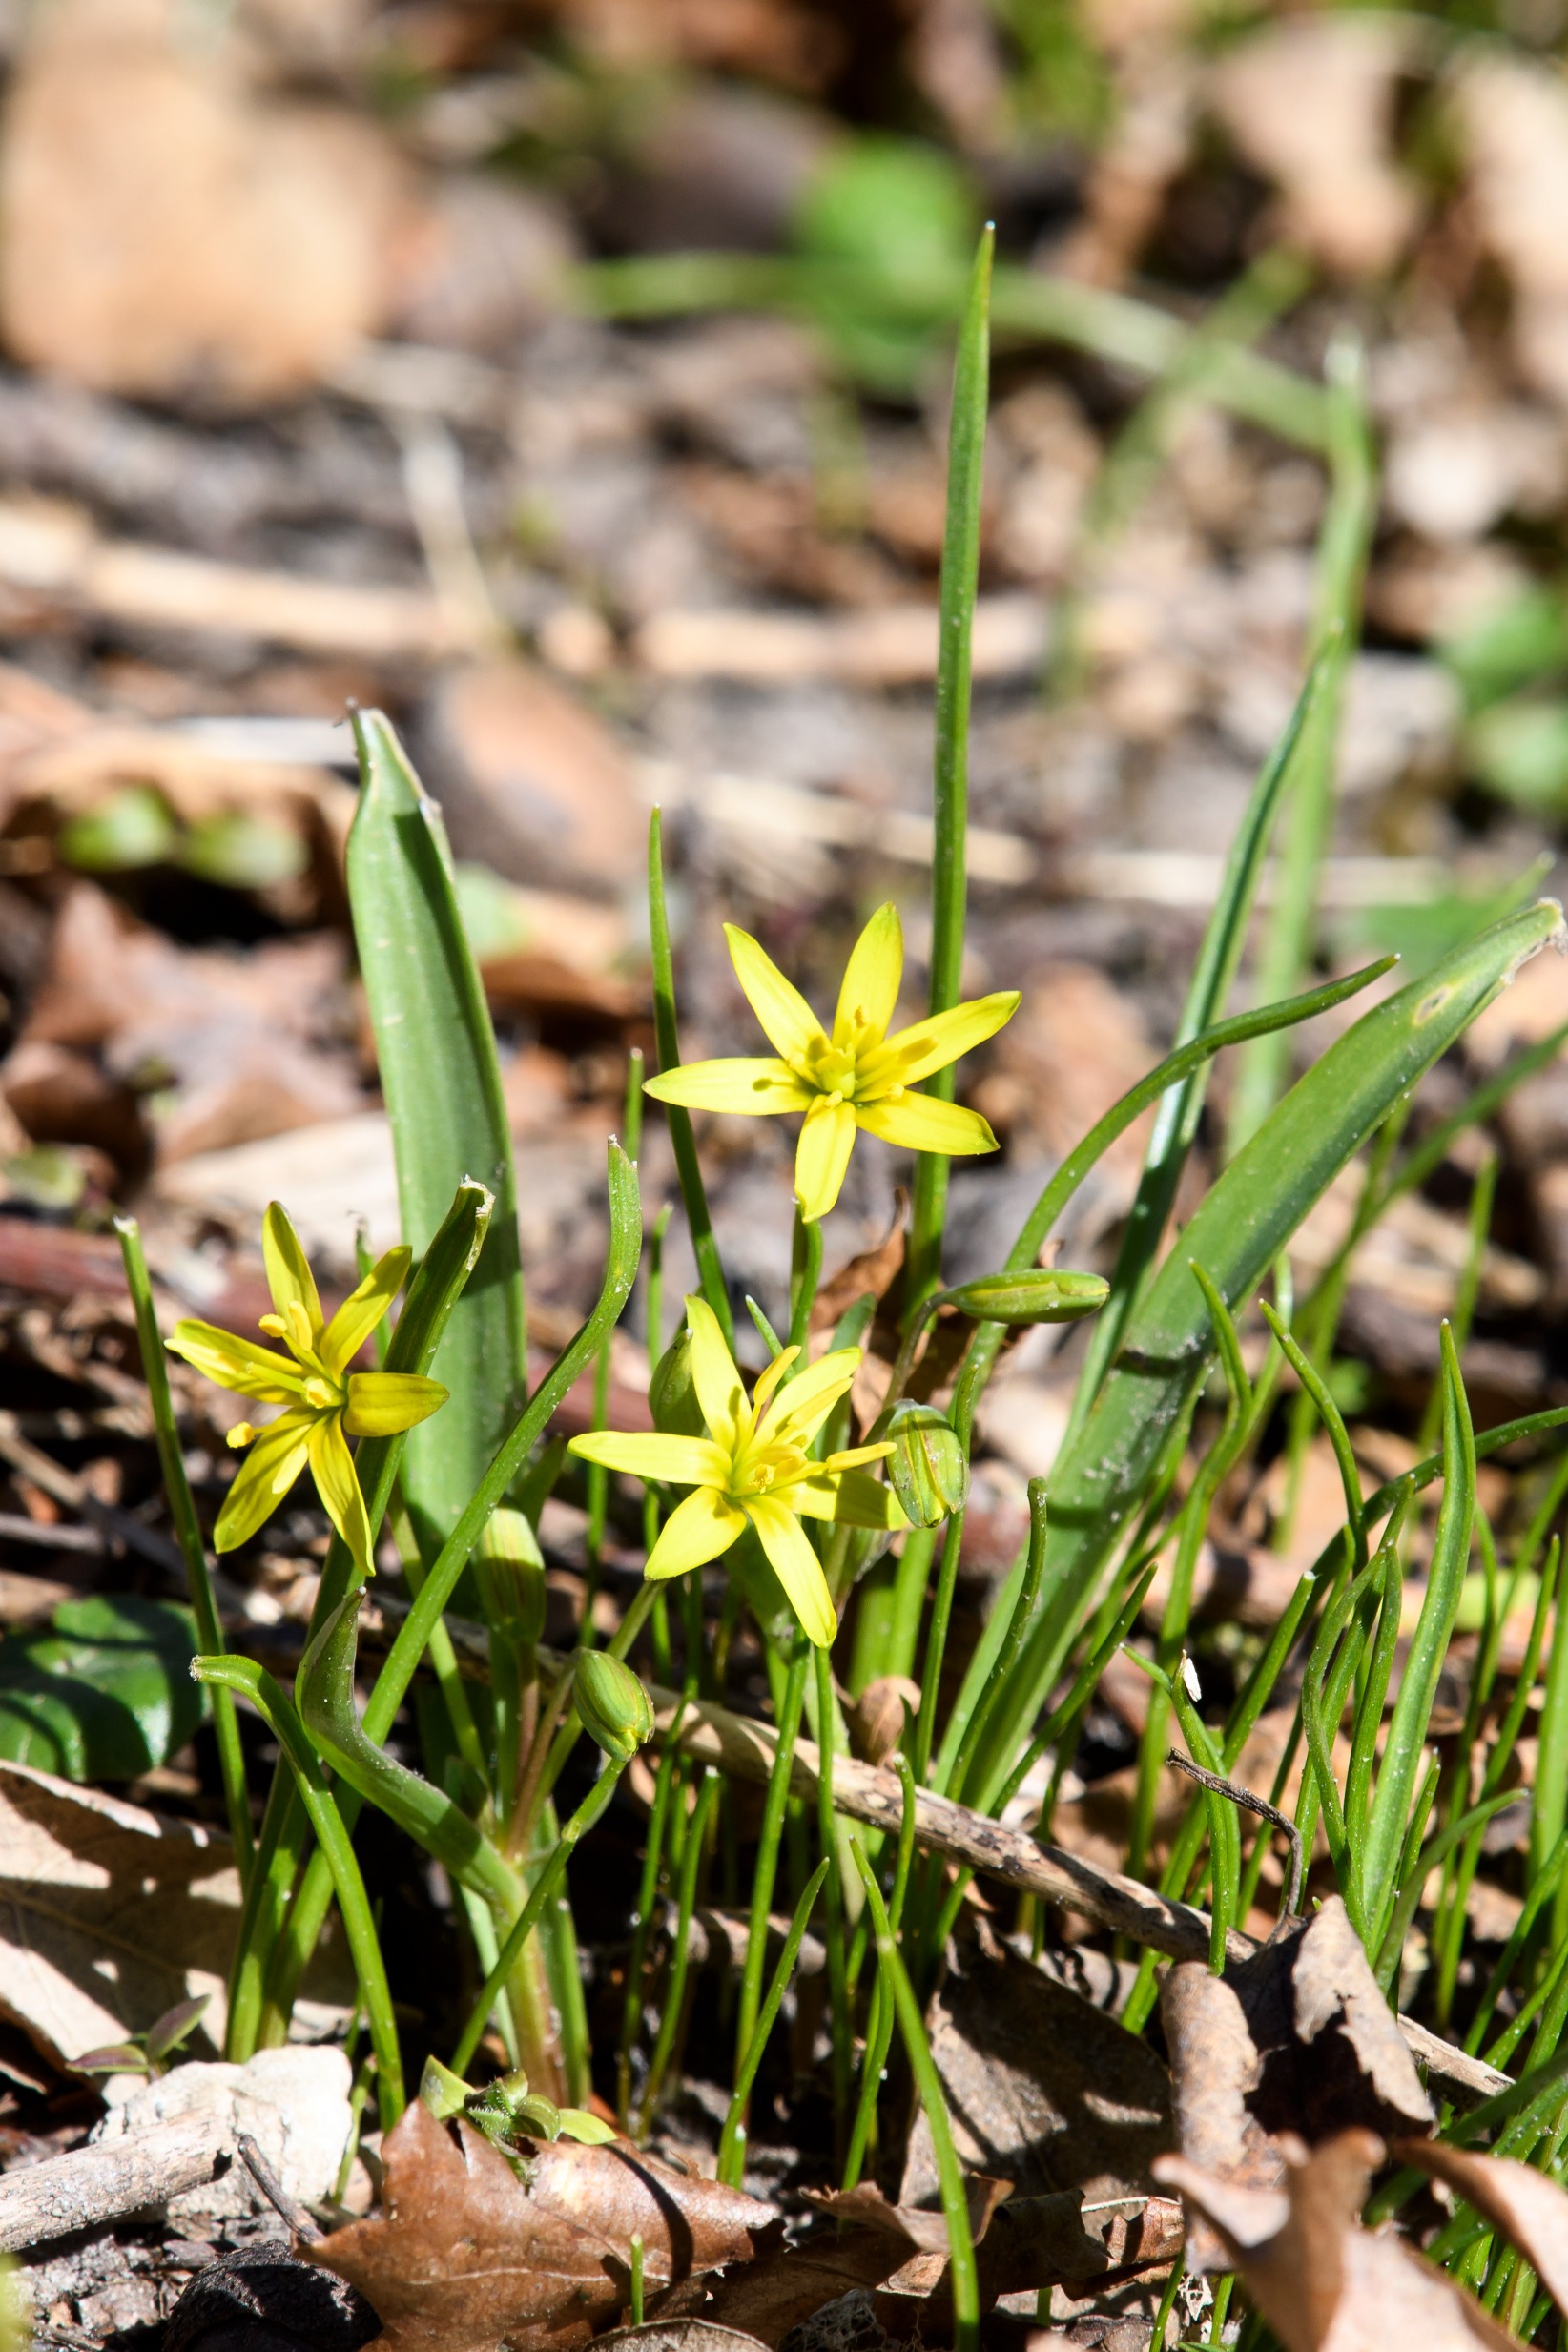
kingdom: Plantae
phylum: Tracheophyta
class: Liliopsida
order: Liliales
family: Liliaceae
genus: Gagea
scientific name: Gagea lutea
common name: Almindelig guldstjerne
